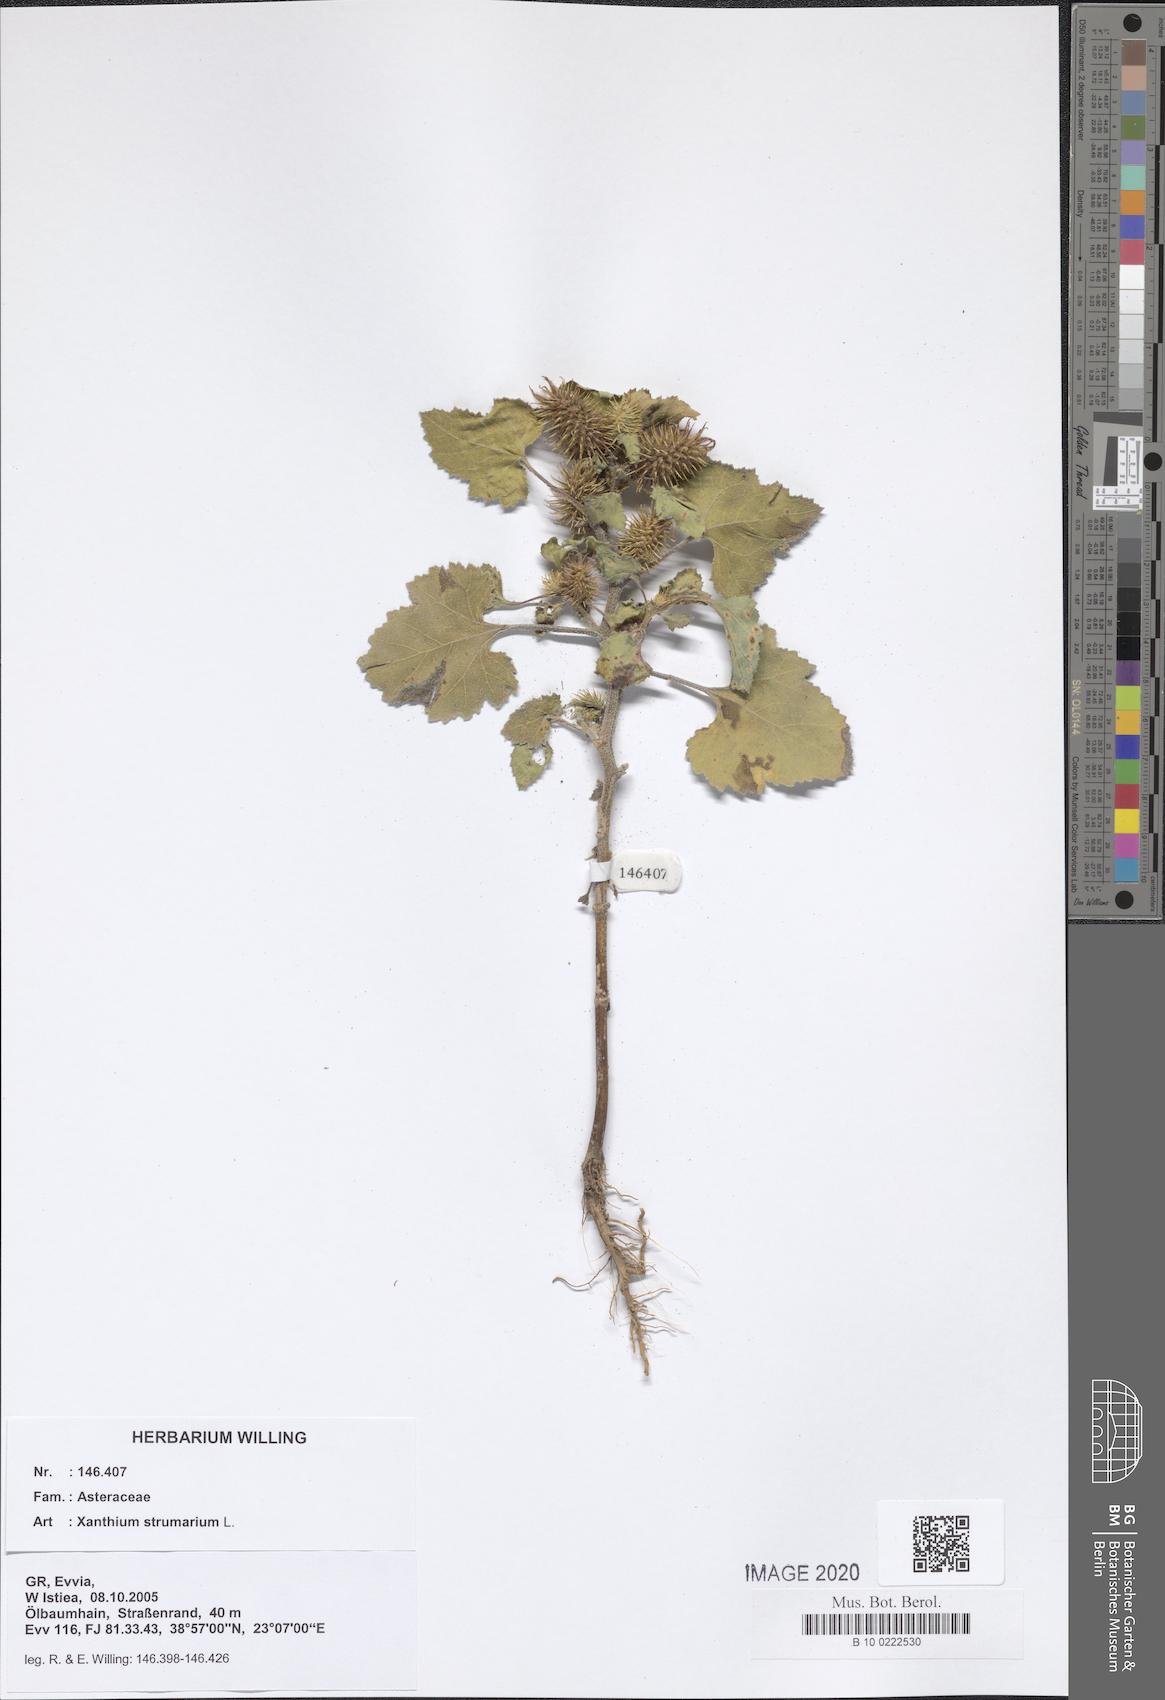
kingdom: Plantae
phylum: Tracheophyta
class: Magnoliopsida
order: Asterales
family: Asteraceae
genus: Xanthium
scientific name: Xanthium strumarium
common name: Rough cocklebur
